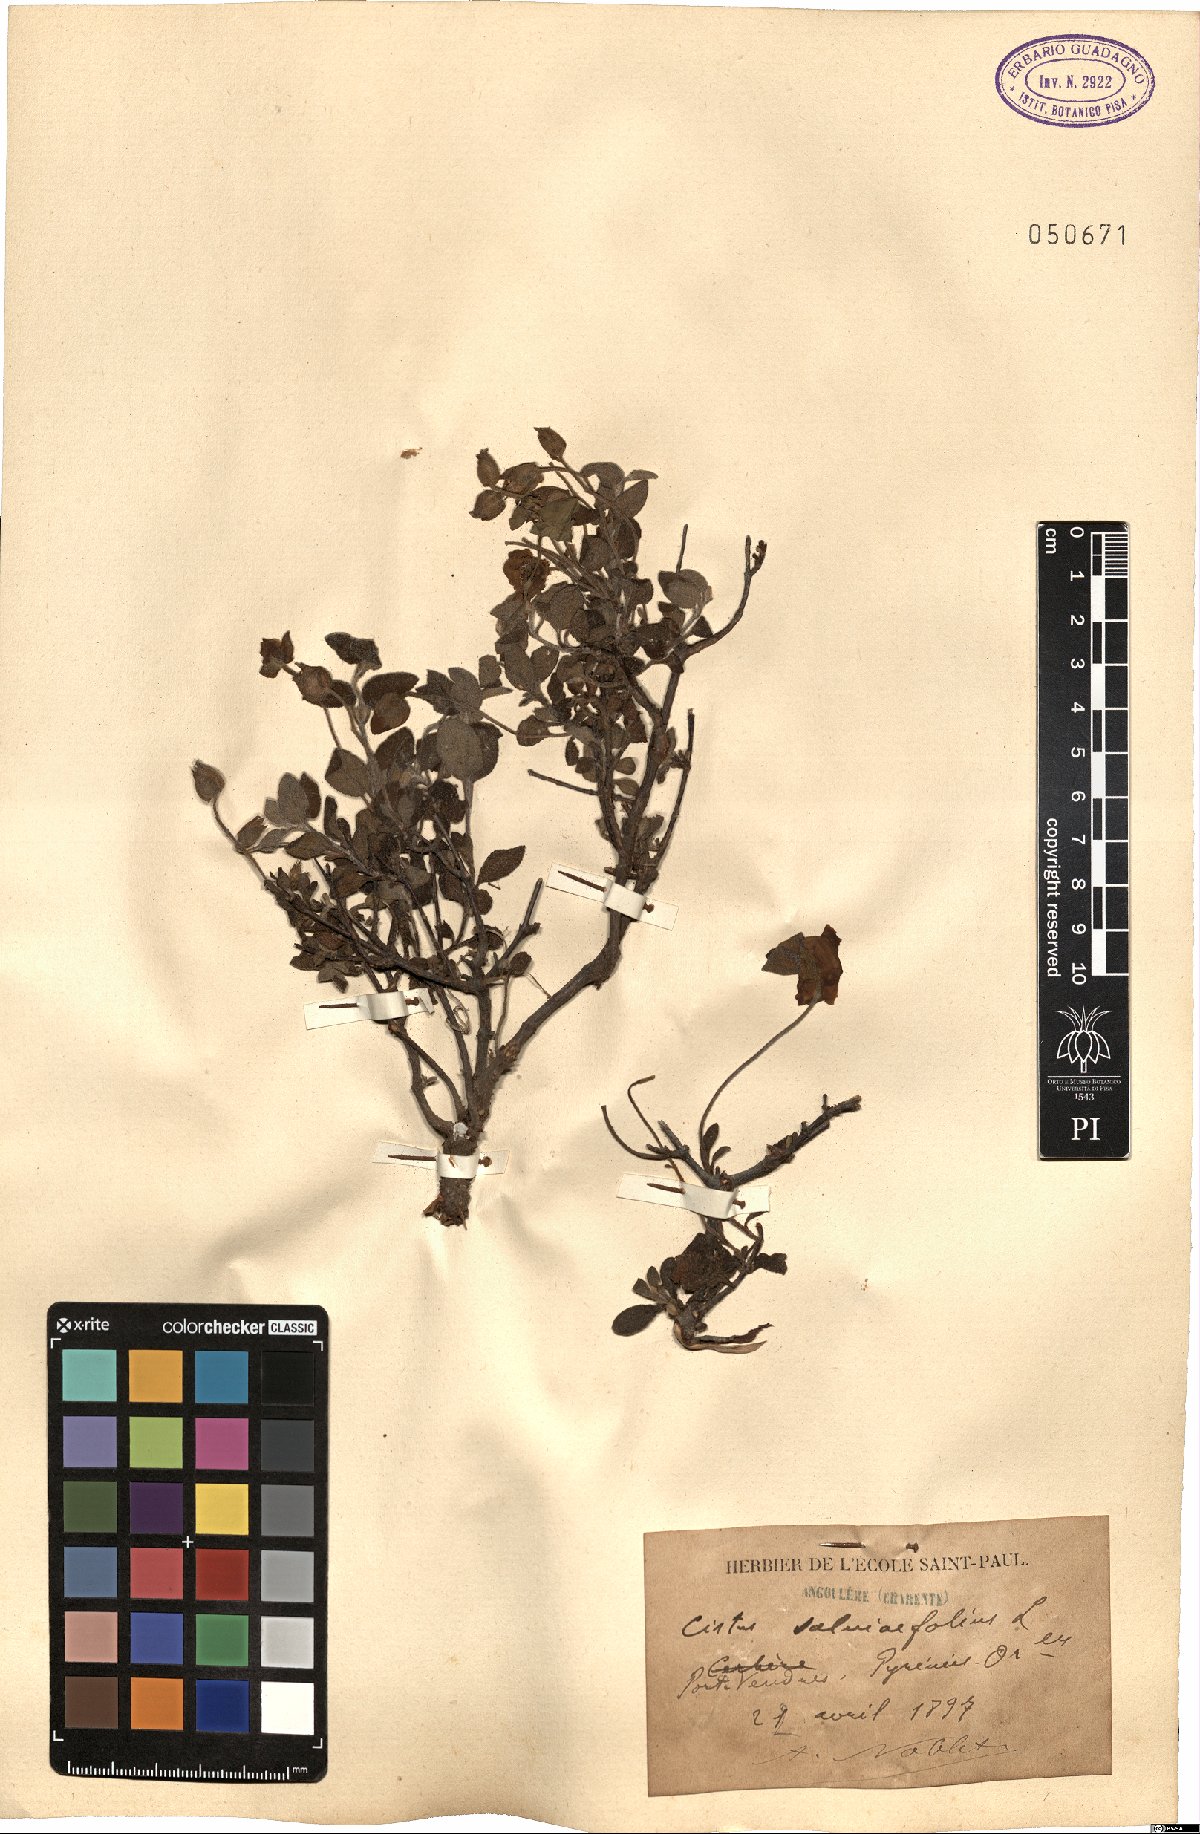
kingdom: Plantae
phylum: Tracheophyta
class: Magnoliopsida
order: Malvales
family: Cistaceae
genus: Cistus
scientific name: Cistus salviifolius
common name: Salvia cistus
